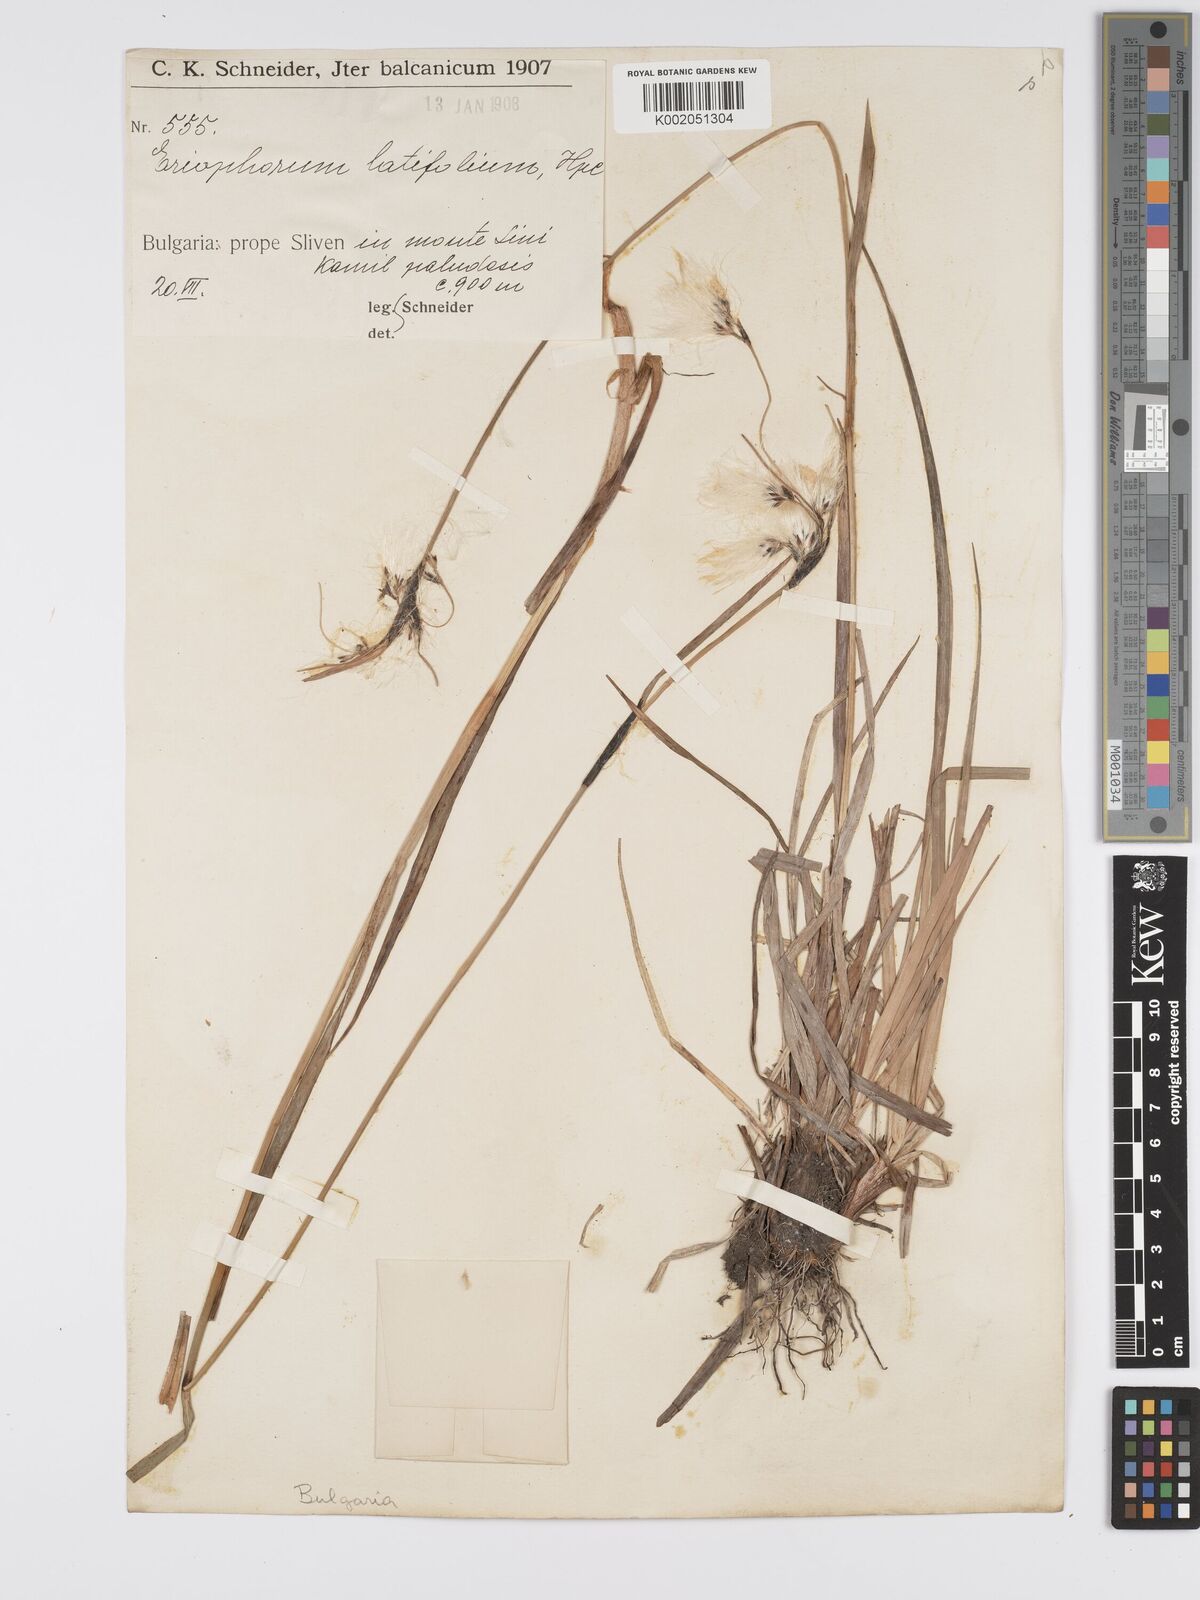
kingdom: Plantae
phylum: Tracheophyta
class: Liliopsida
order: Poales
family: Cyperaceae
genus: Eriophorum
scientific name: Eriophorum latifolium
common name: Broad-leaved cottongrass
